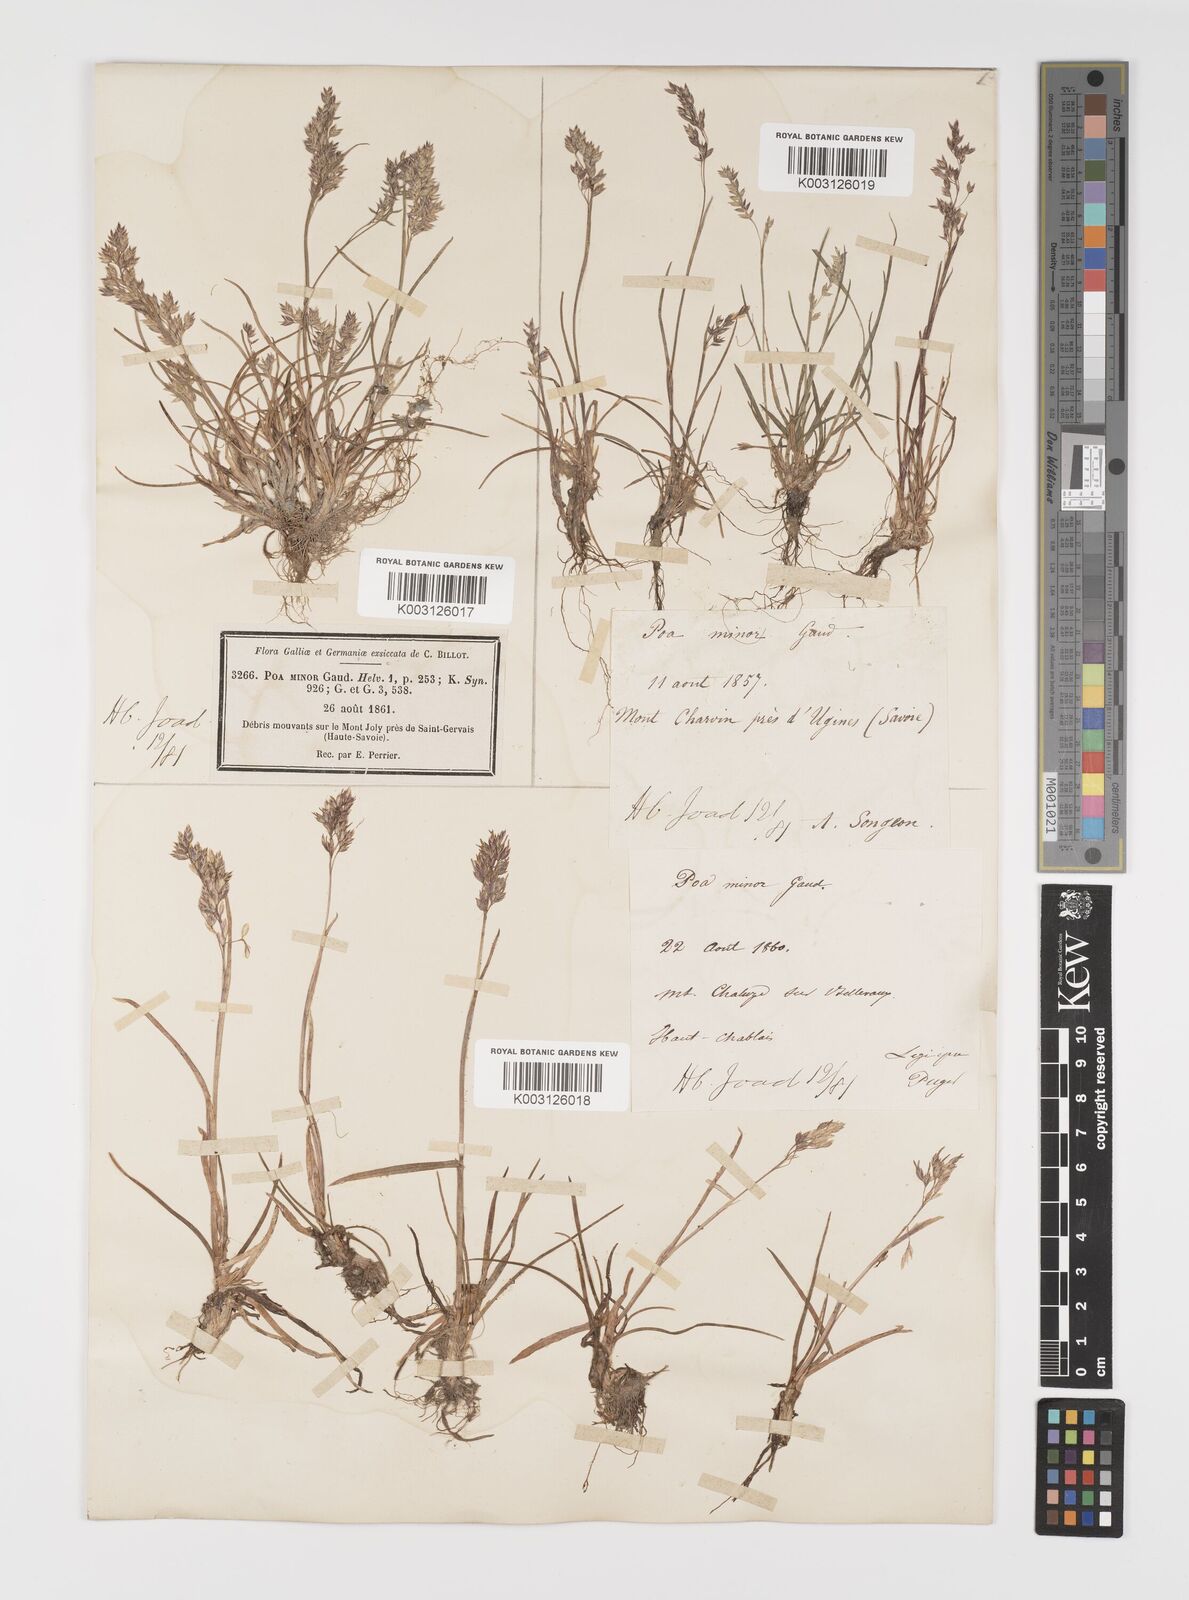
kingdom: Plantae
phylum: Tracheophyta
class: Liliopsida
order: Poales
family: Poaceae
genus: Poa
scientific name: Poa minor
